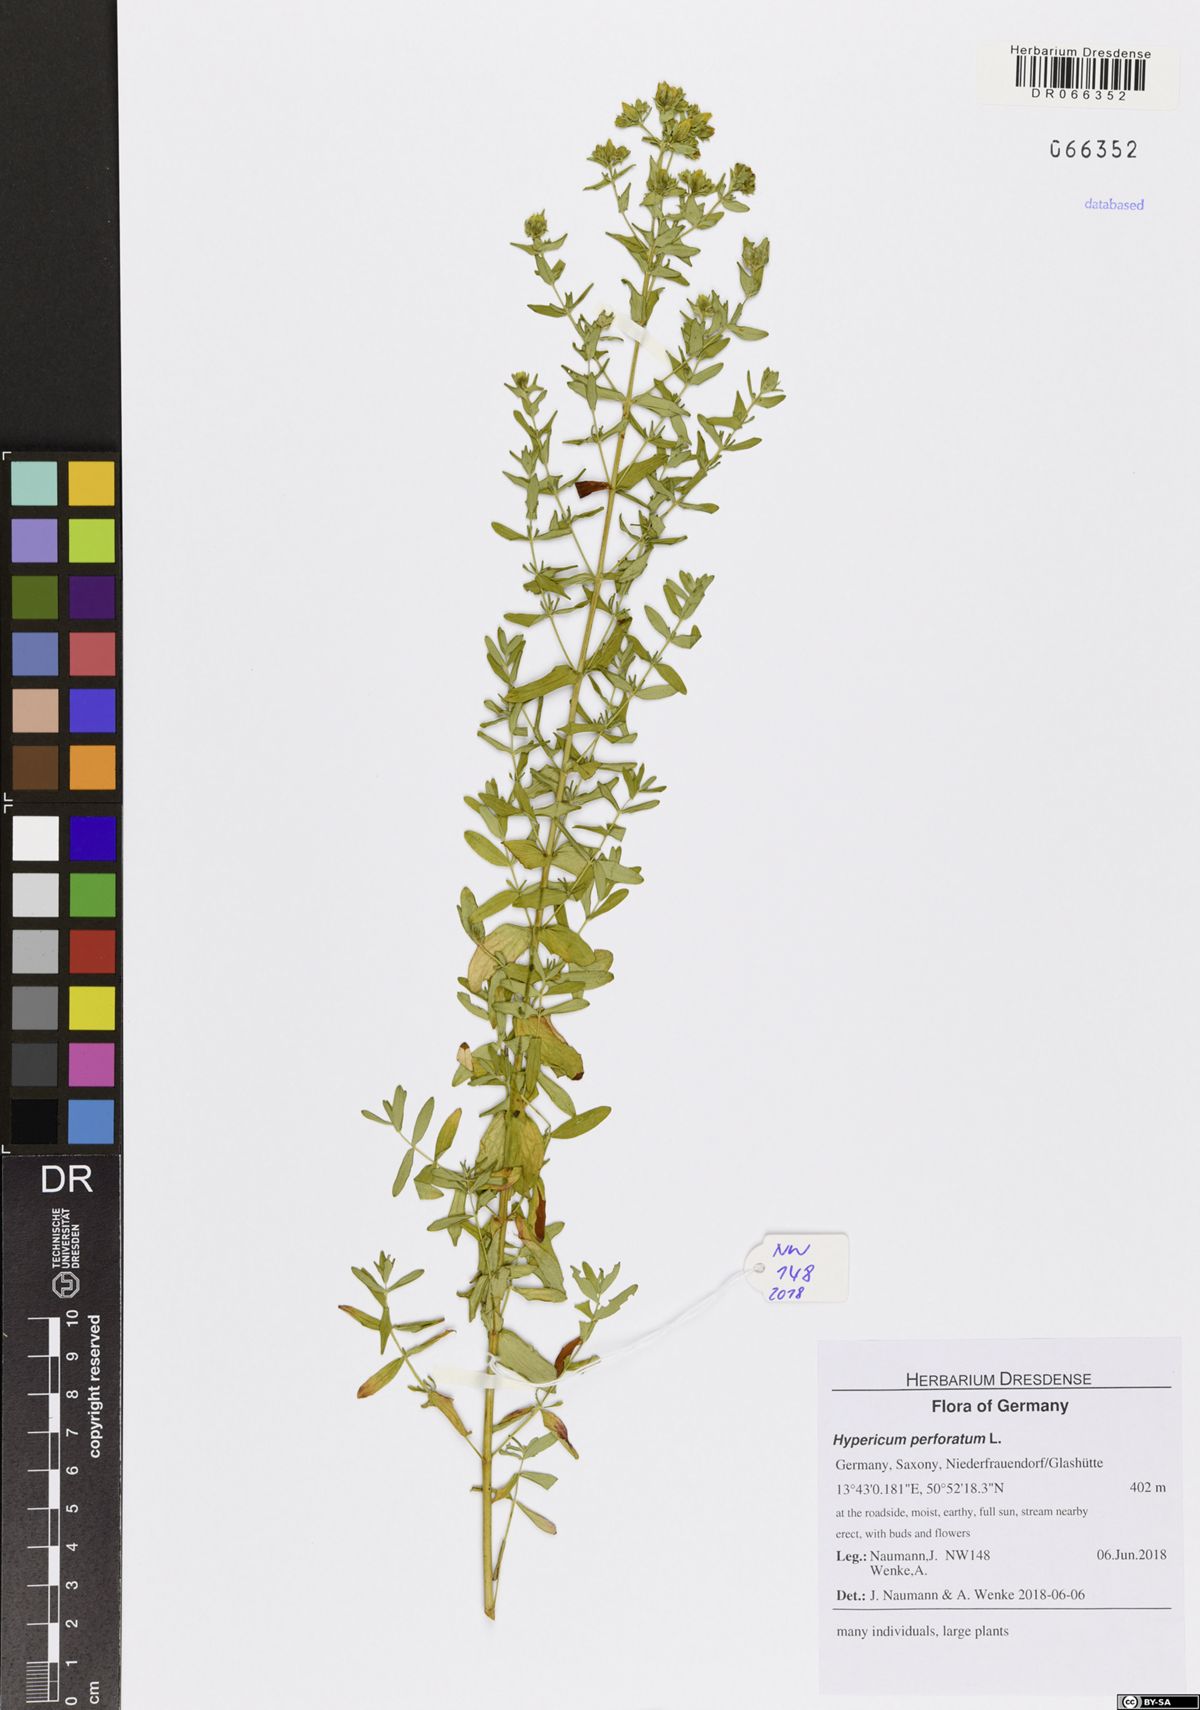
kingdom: Plantae
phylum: Tracheophyta
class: Magnoliopsida
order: Malpighiales
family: Hypericaceae
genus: Hypericum
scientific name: Hypericum perforatum
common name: Common st. johnswort
